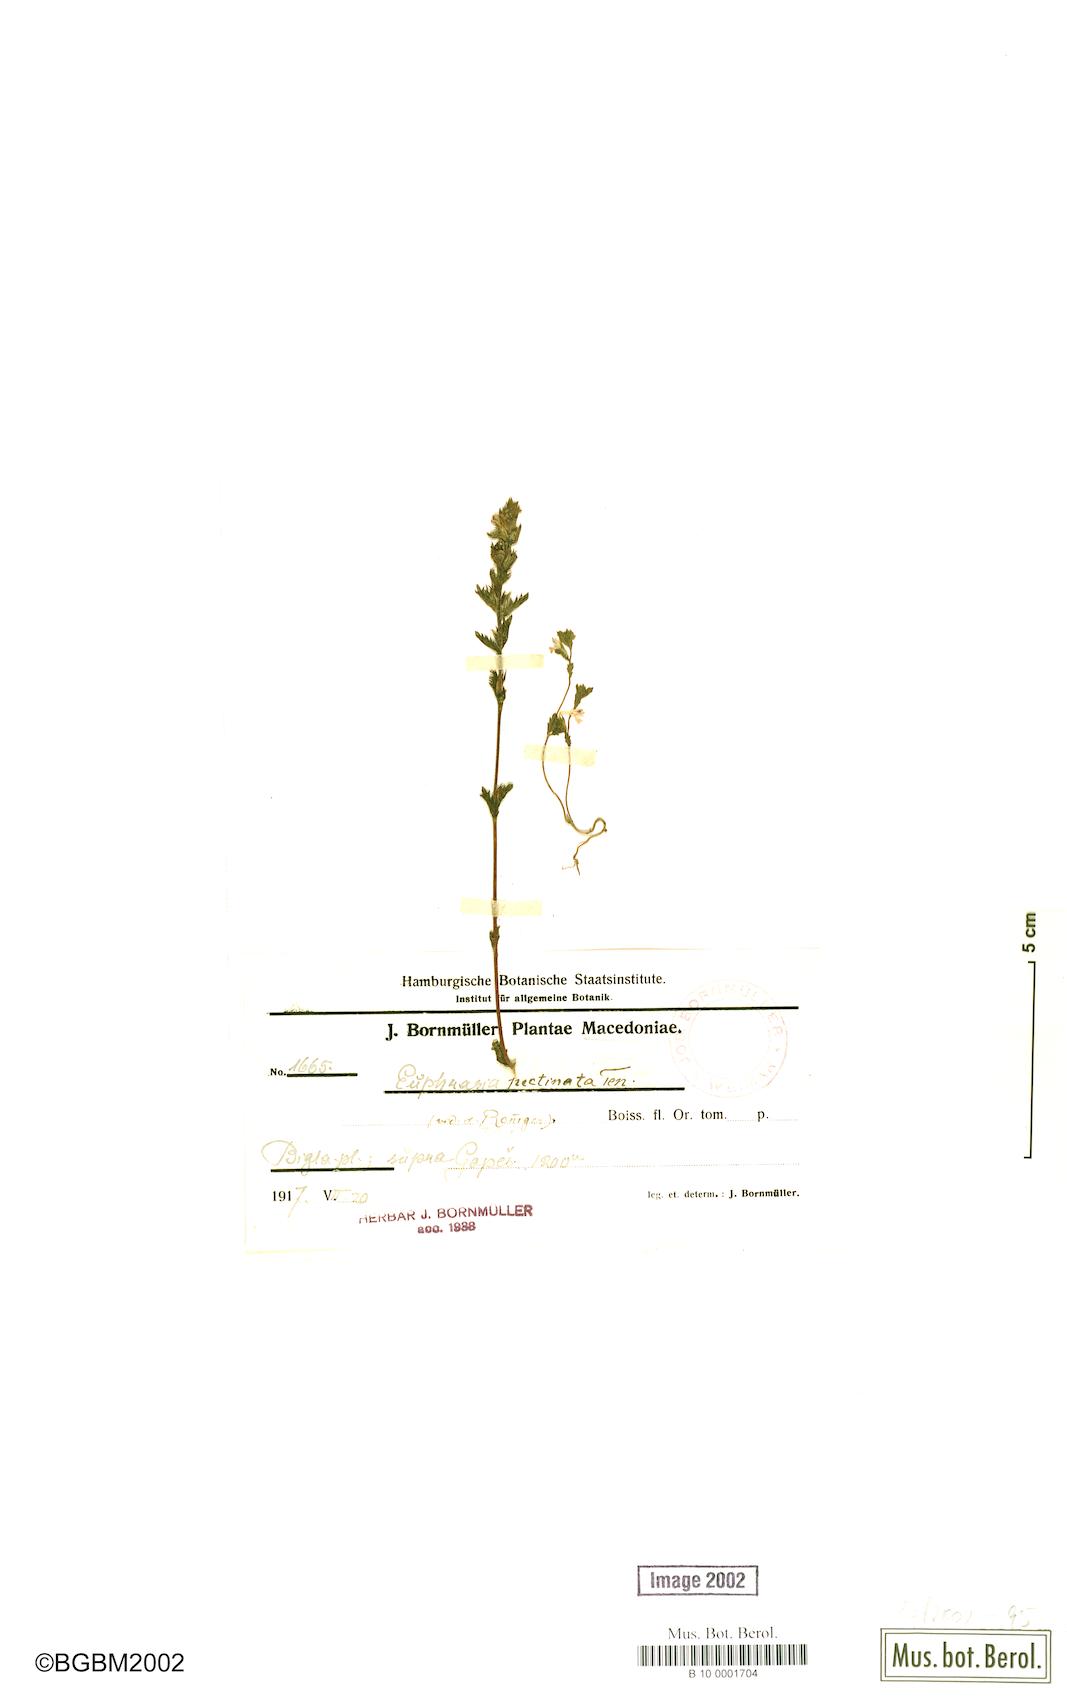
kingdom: Plantae
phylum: Tracheophyta
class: Magnoliopsida
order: Lamiales
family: Orobanchaceae
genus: Euphrasia
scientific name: Euphrasia pectinata
